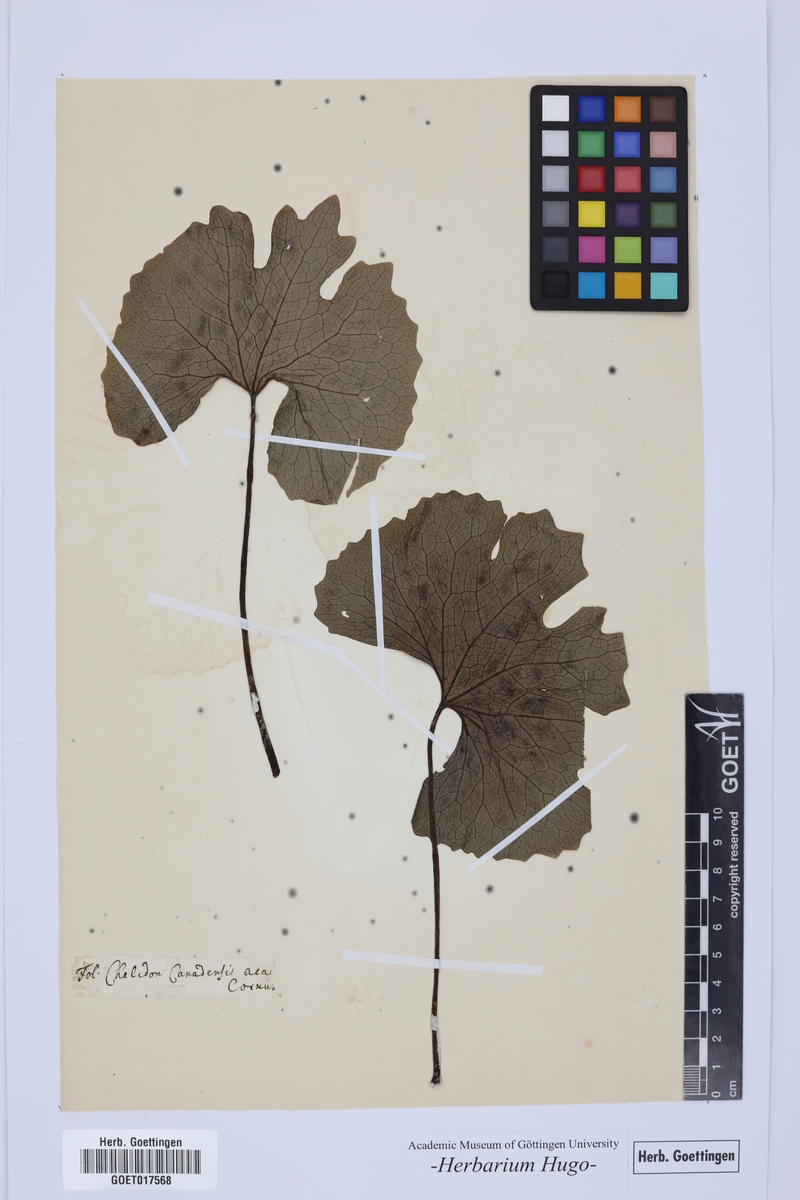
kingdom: Plantae
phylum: Tracheophyta
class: Magnoliopsida
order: Ranunculales
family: Papaveraceae
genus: Sanguinaria
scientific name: Sanguinaria canadensis
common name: Bloodroot
